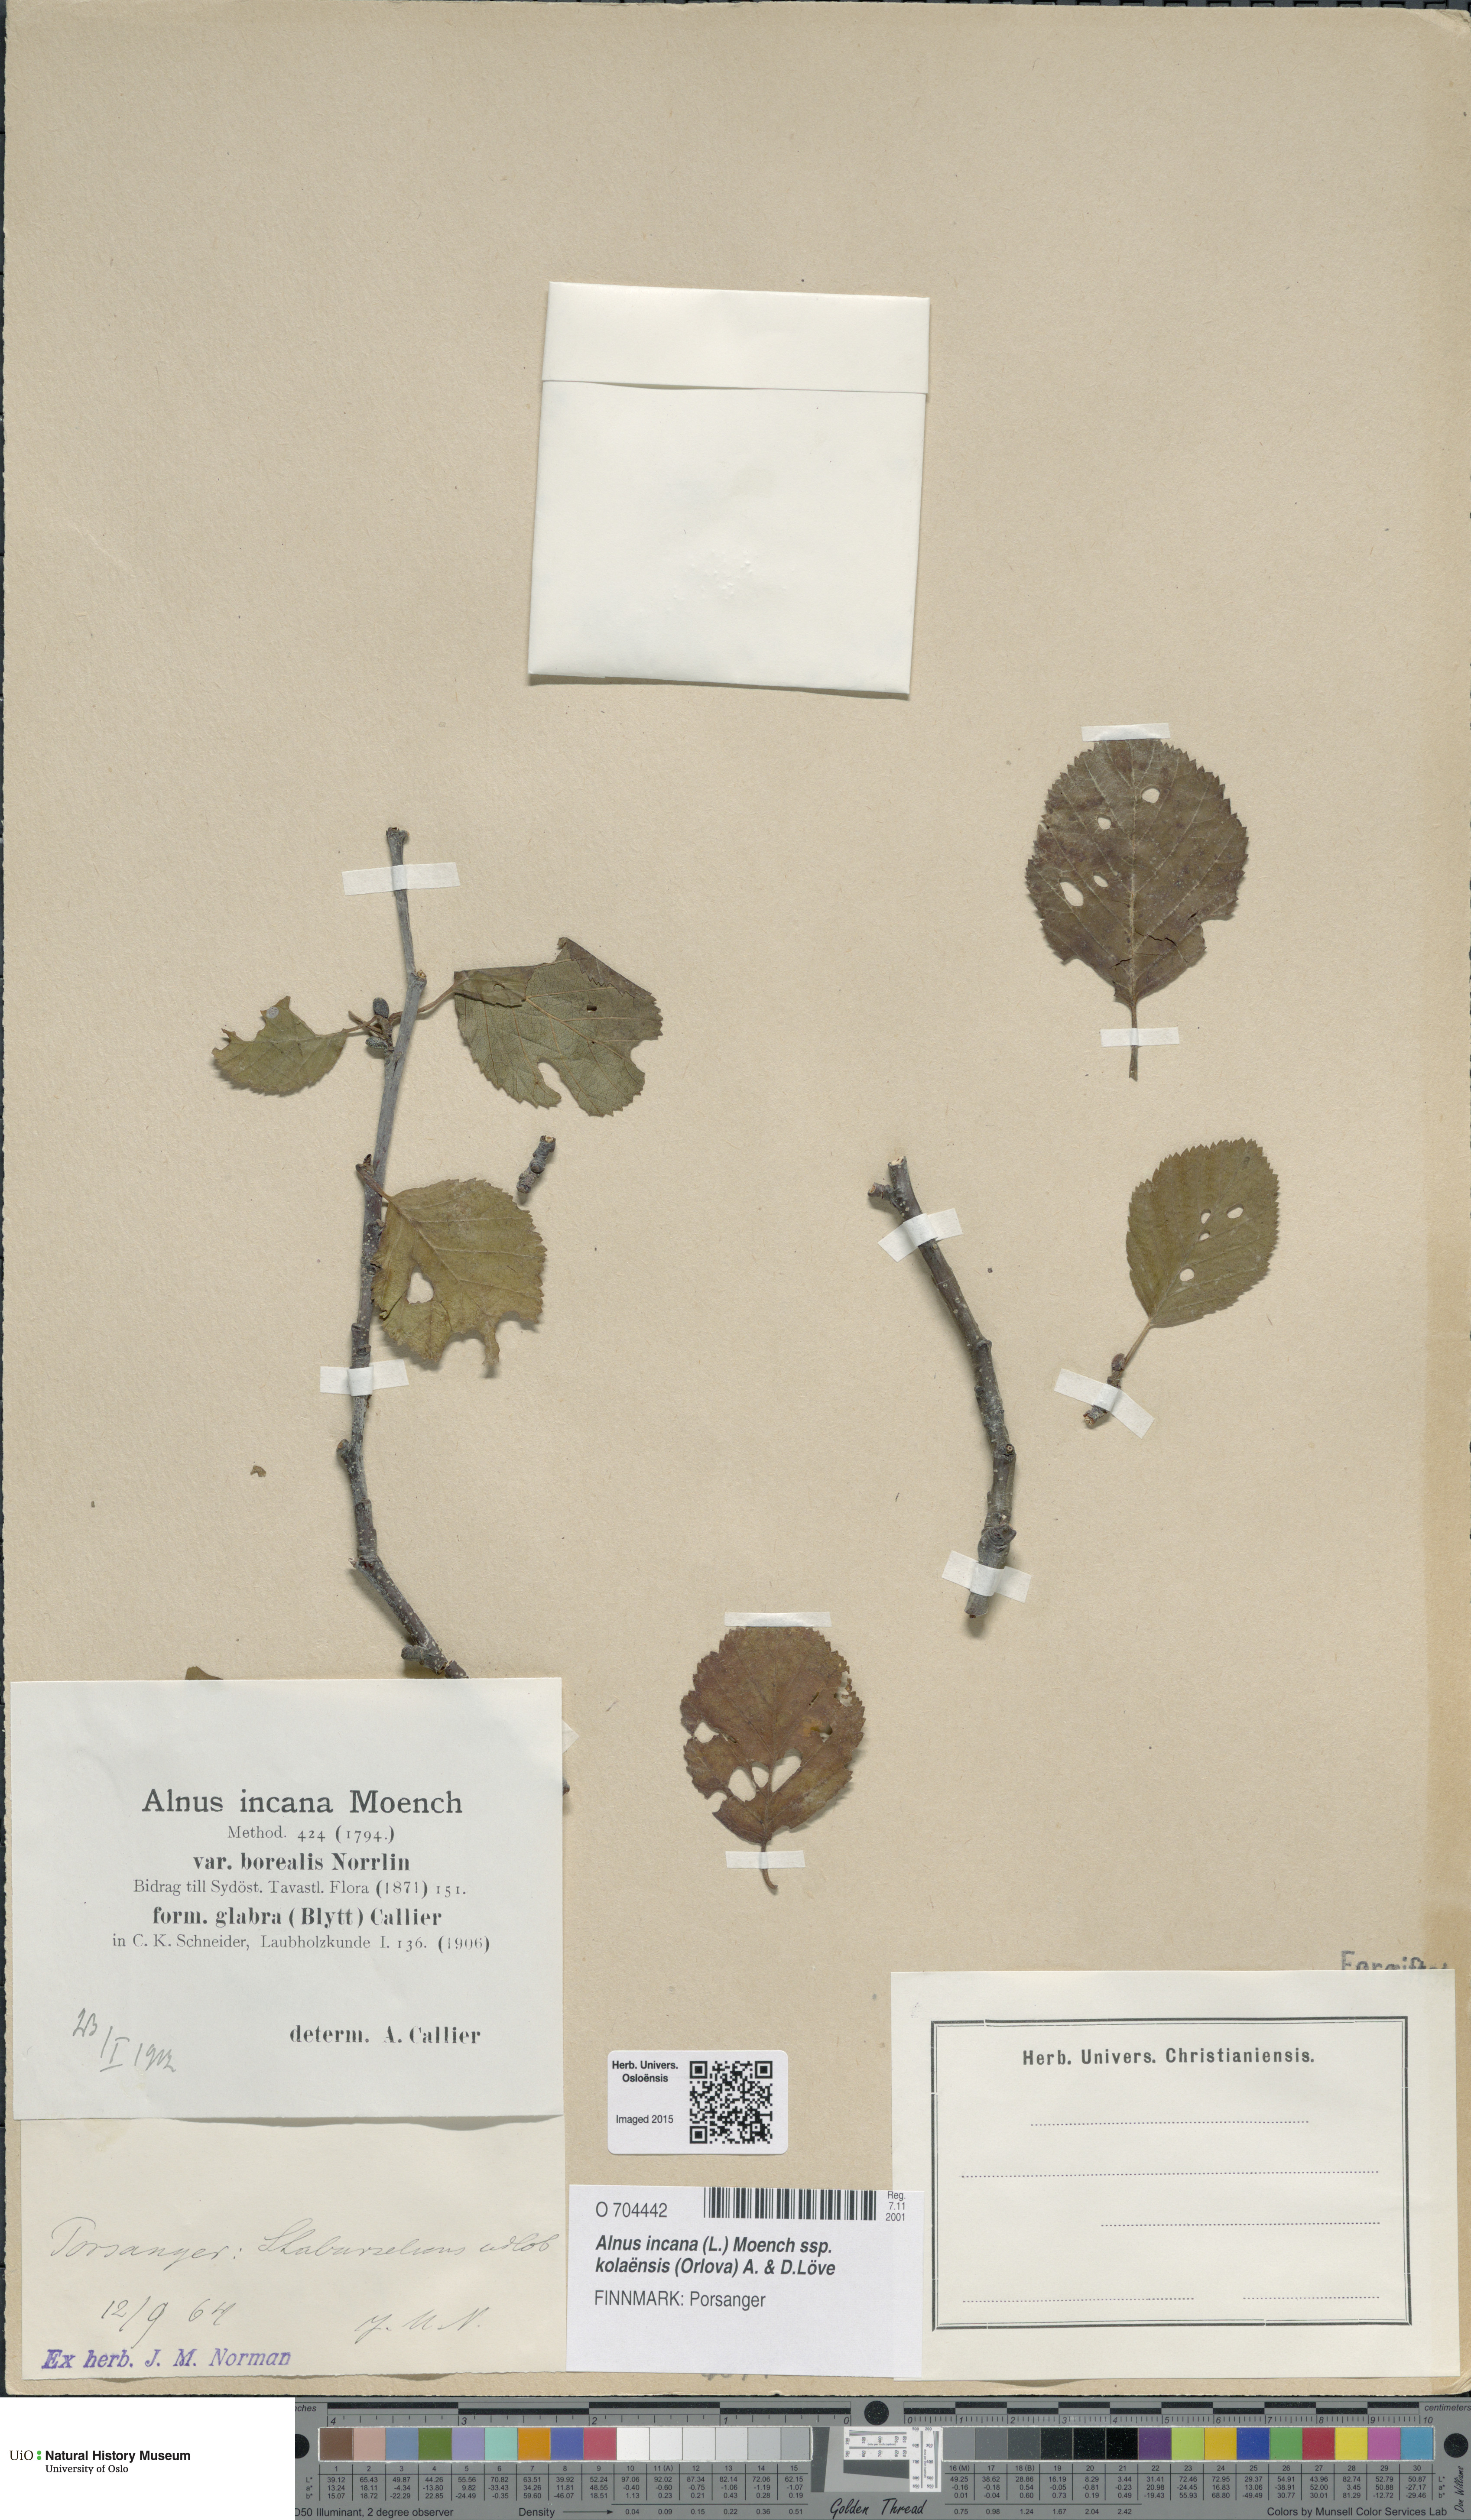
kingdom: Plantae
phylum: Tracheophyta
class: Magnoliopsida
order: Fagales
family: Betulaceae
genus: Alnus
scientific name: Alnus incana
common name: Grey alder
